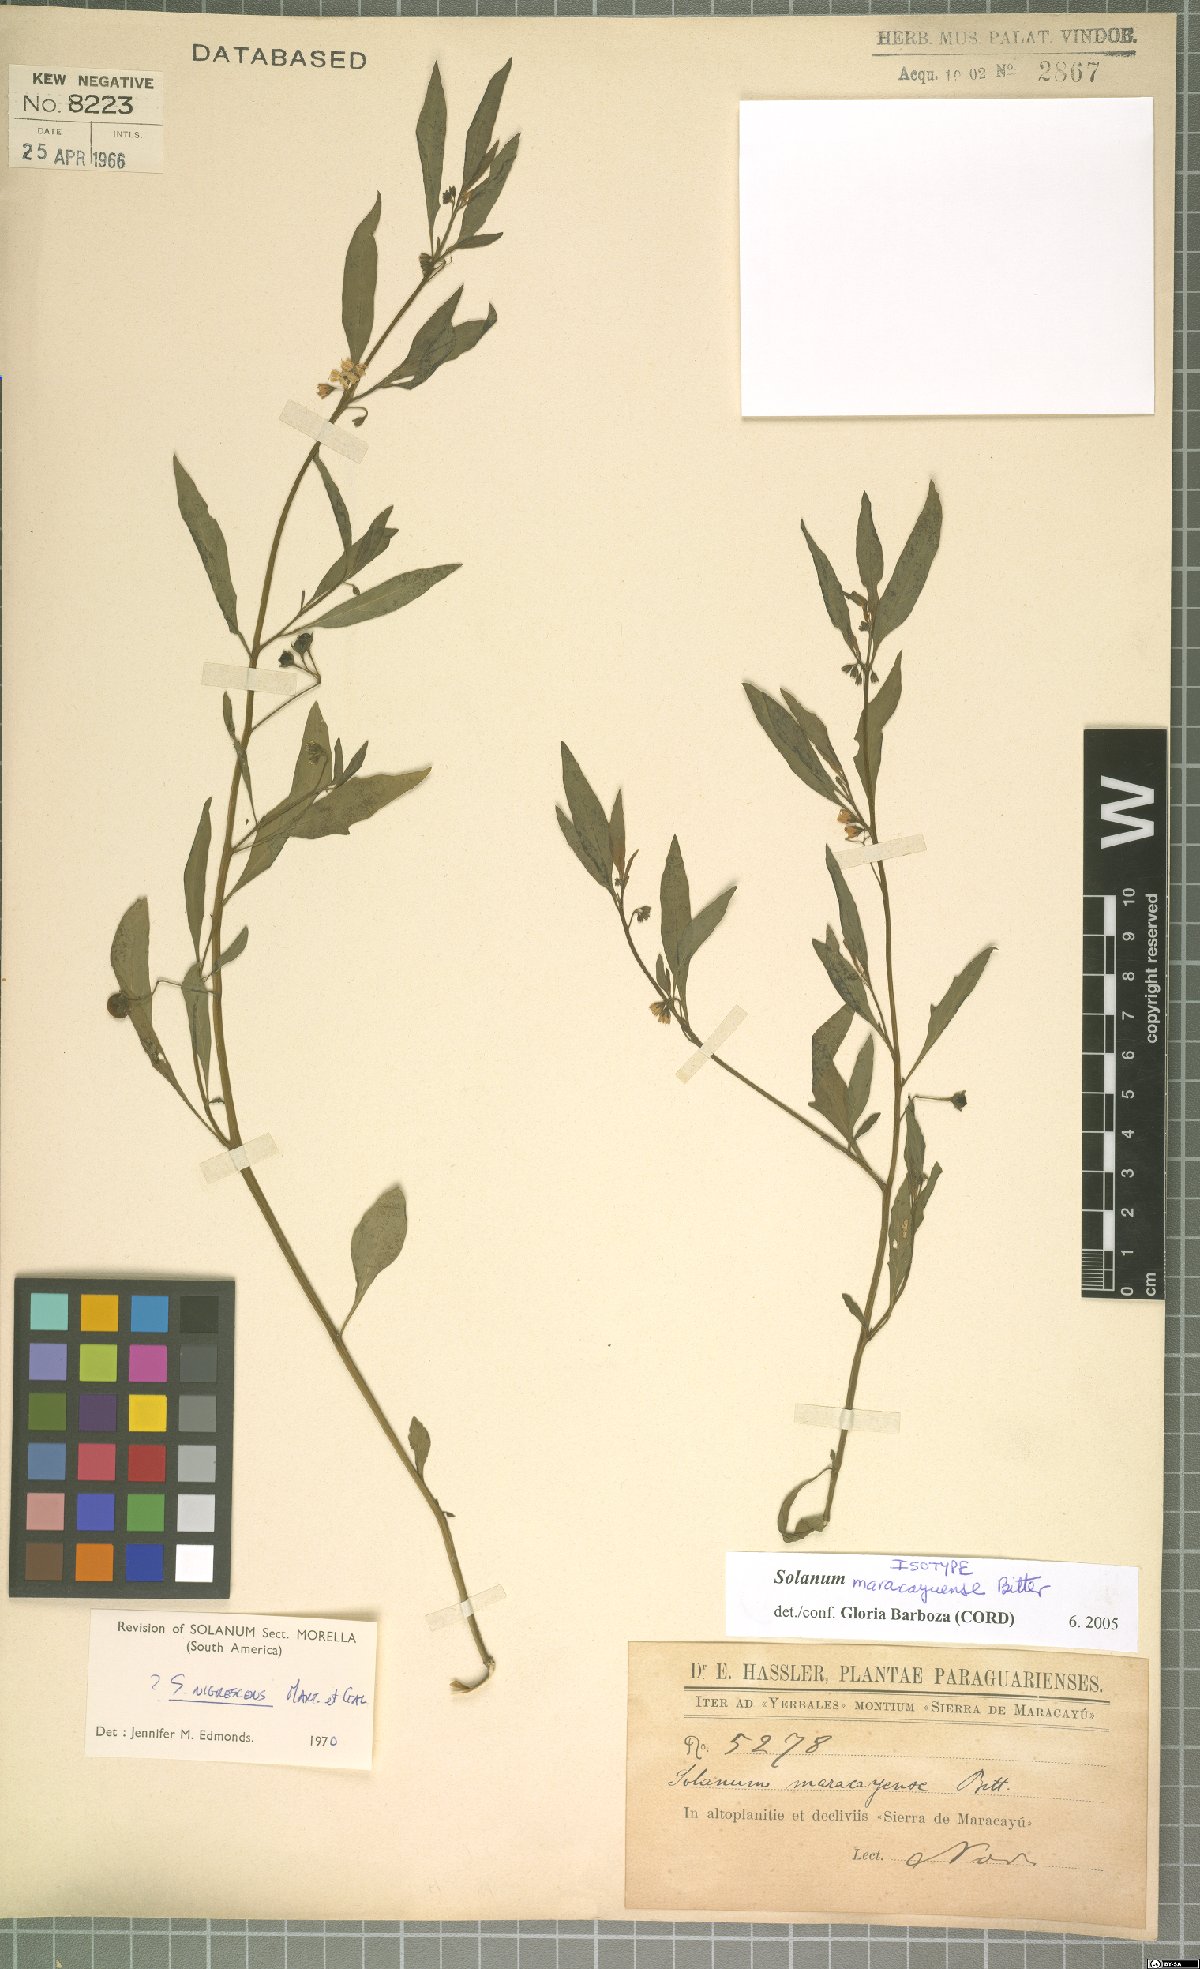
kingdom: Plantae
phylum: Tracheophyta
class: Magnoliopsida
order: Solanales
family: Solanaceae
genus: Solanum
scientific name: Solanum
